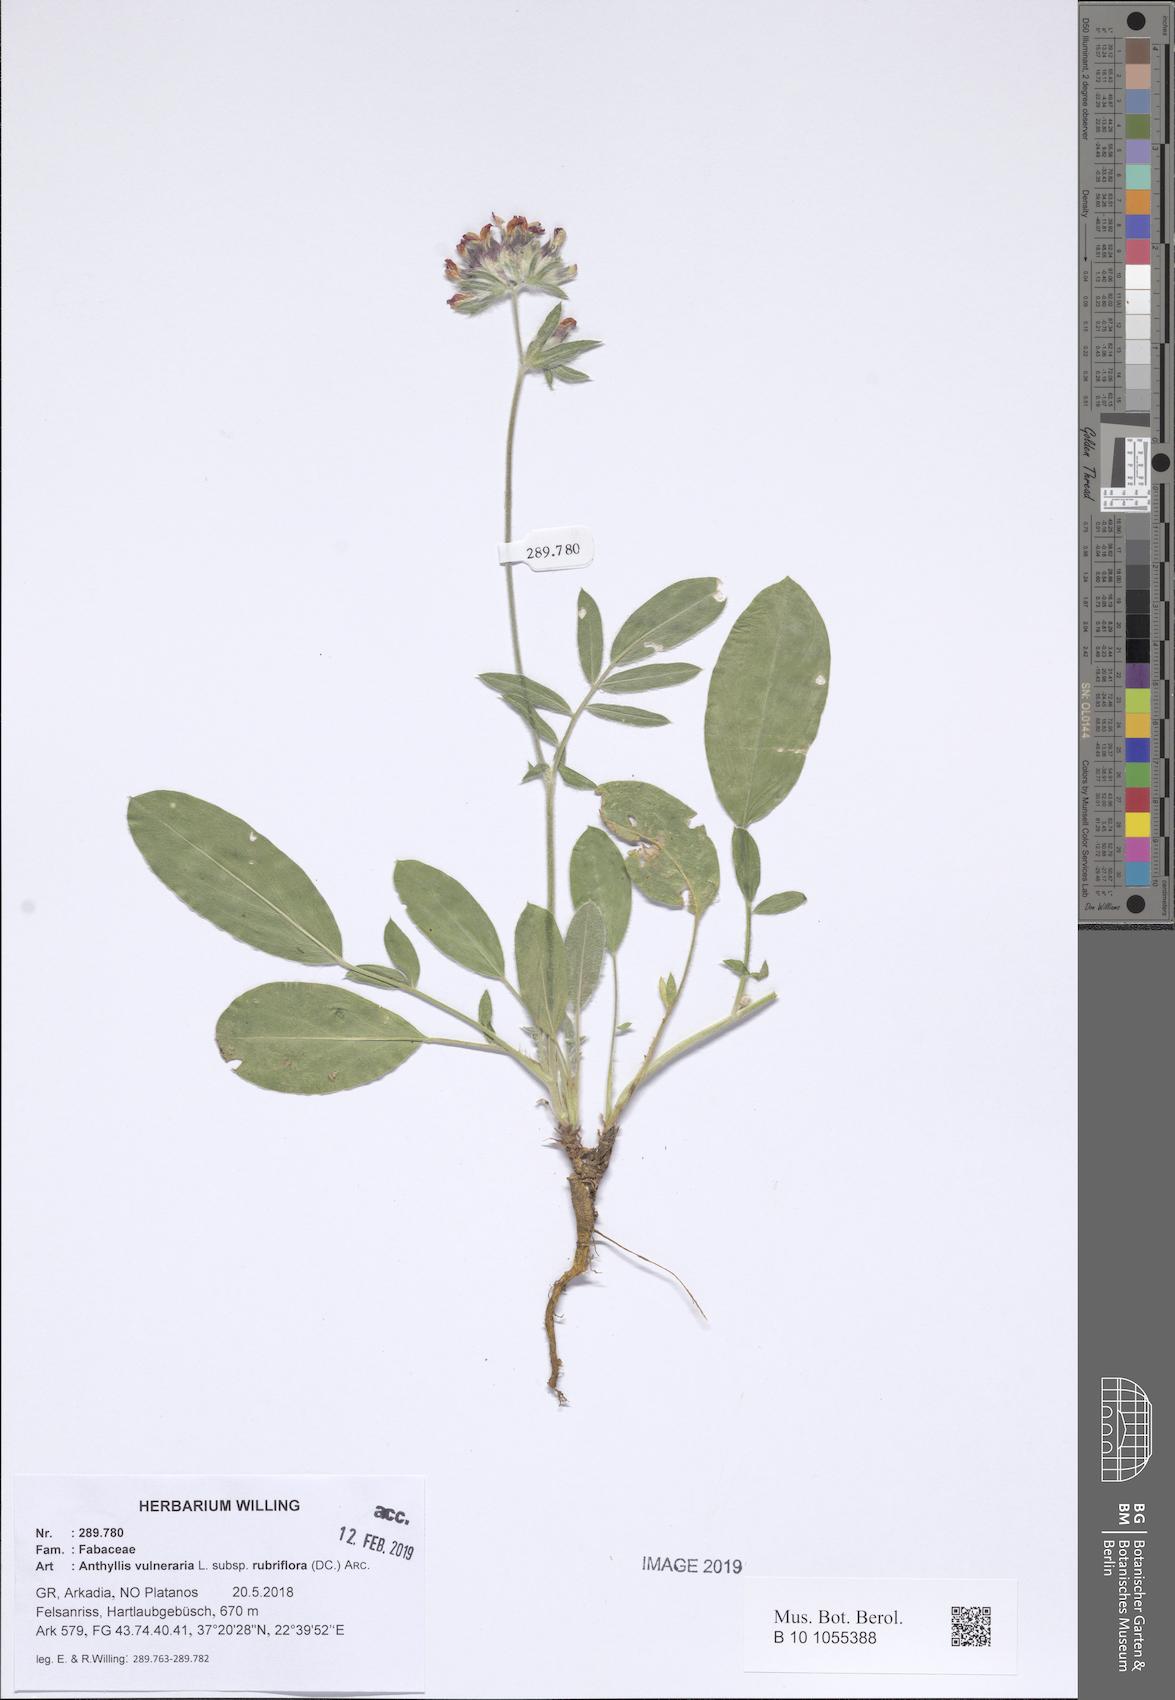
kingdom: Plantae
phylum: Tracheophyta
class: Magnoliopsida
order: Fabales
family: Fabaceae
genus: Anthyllis
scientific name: Anthyllis vulneraria
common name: Kidney vetch
